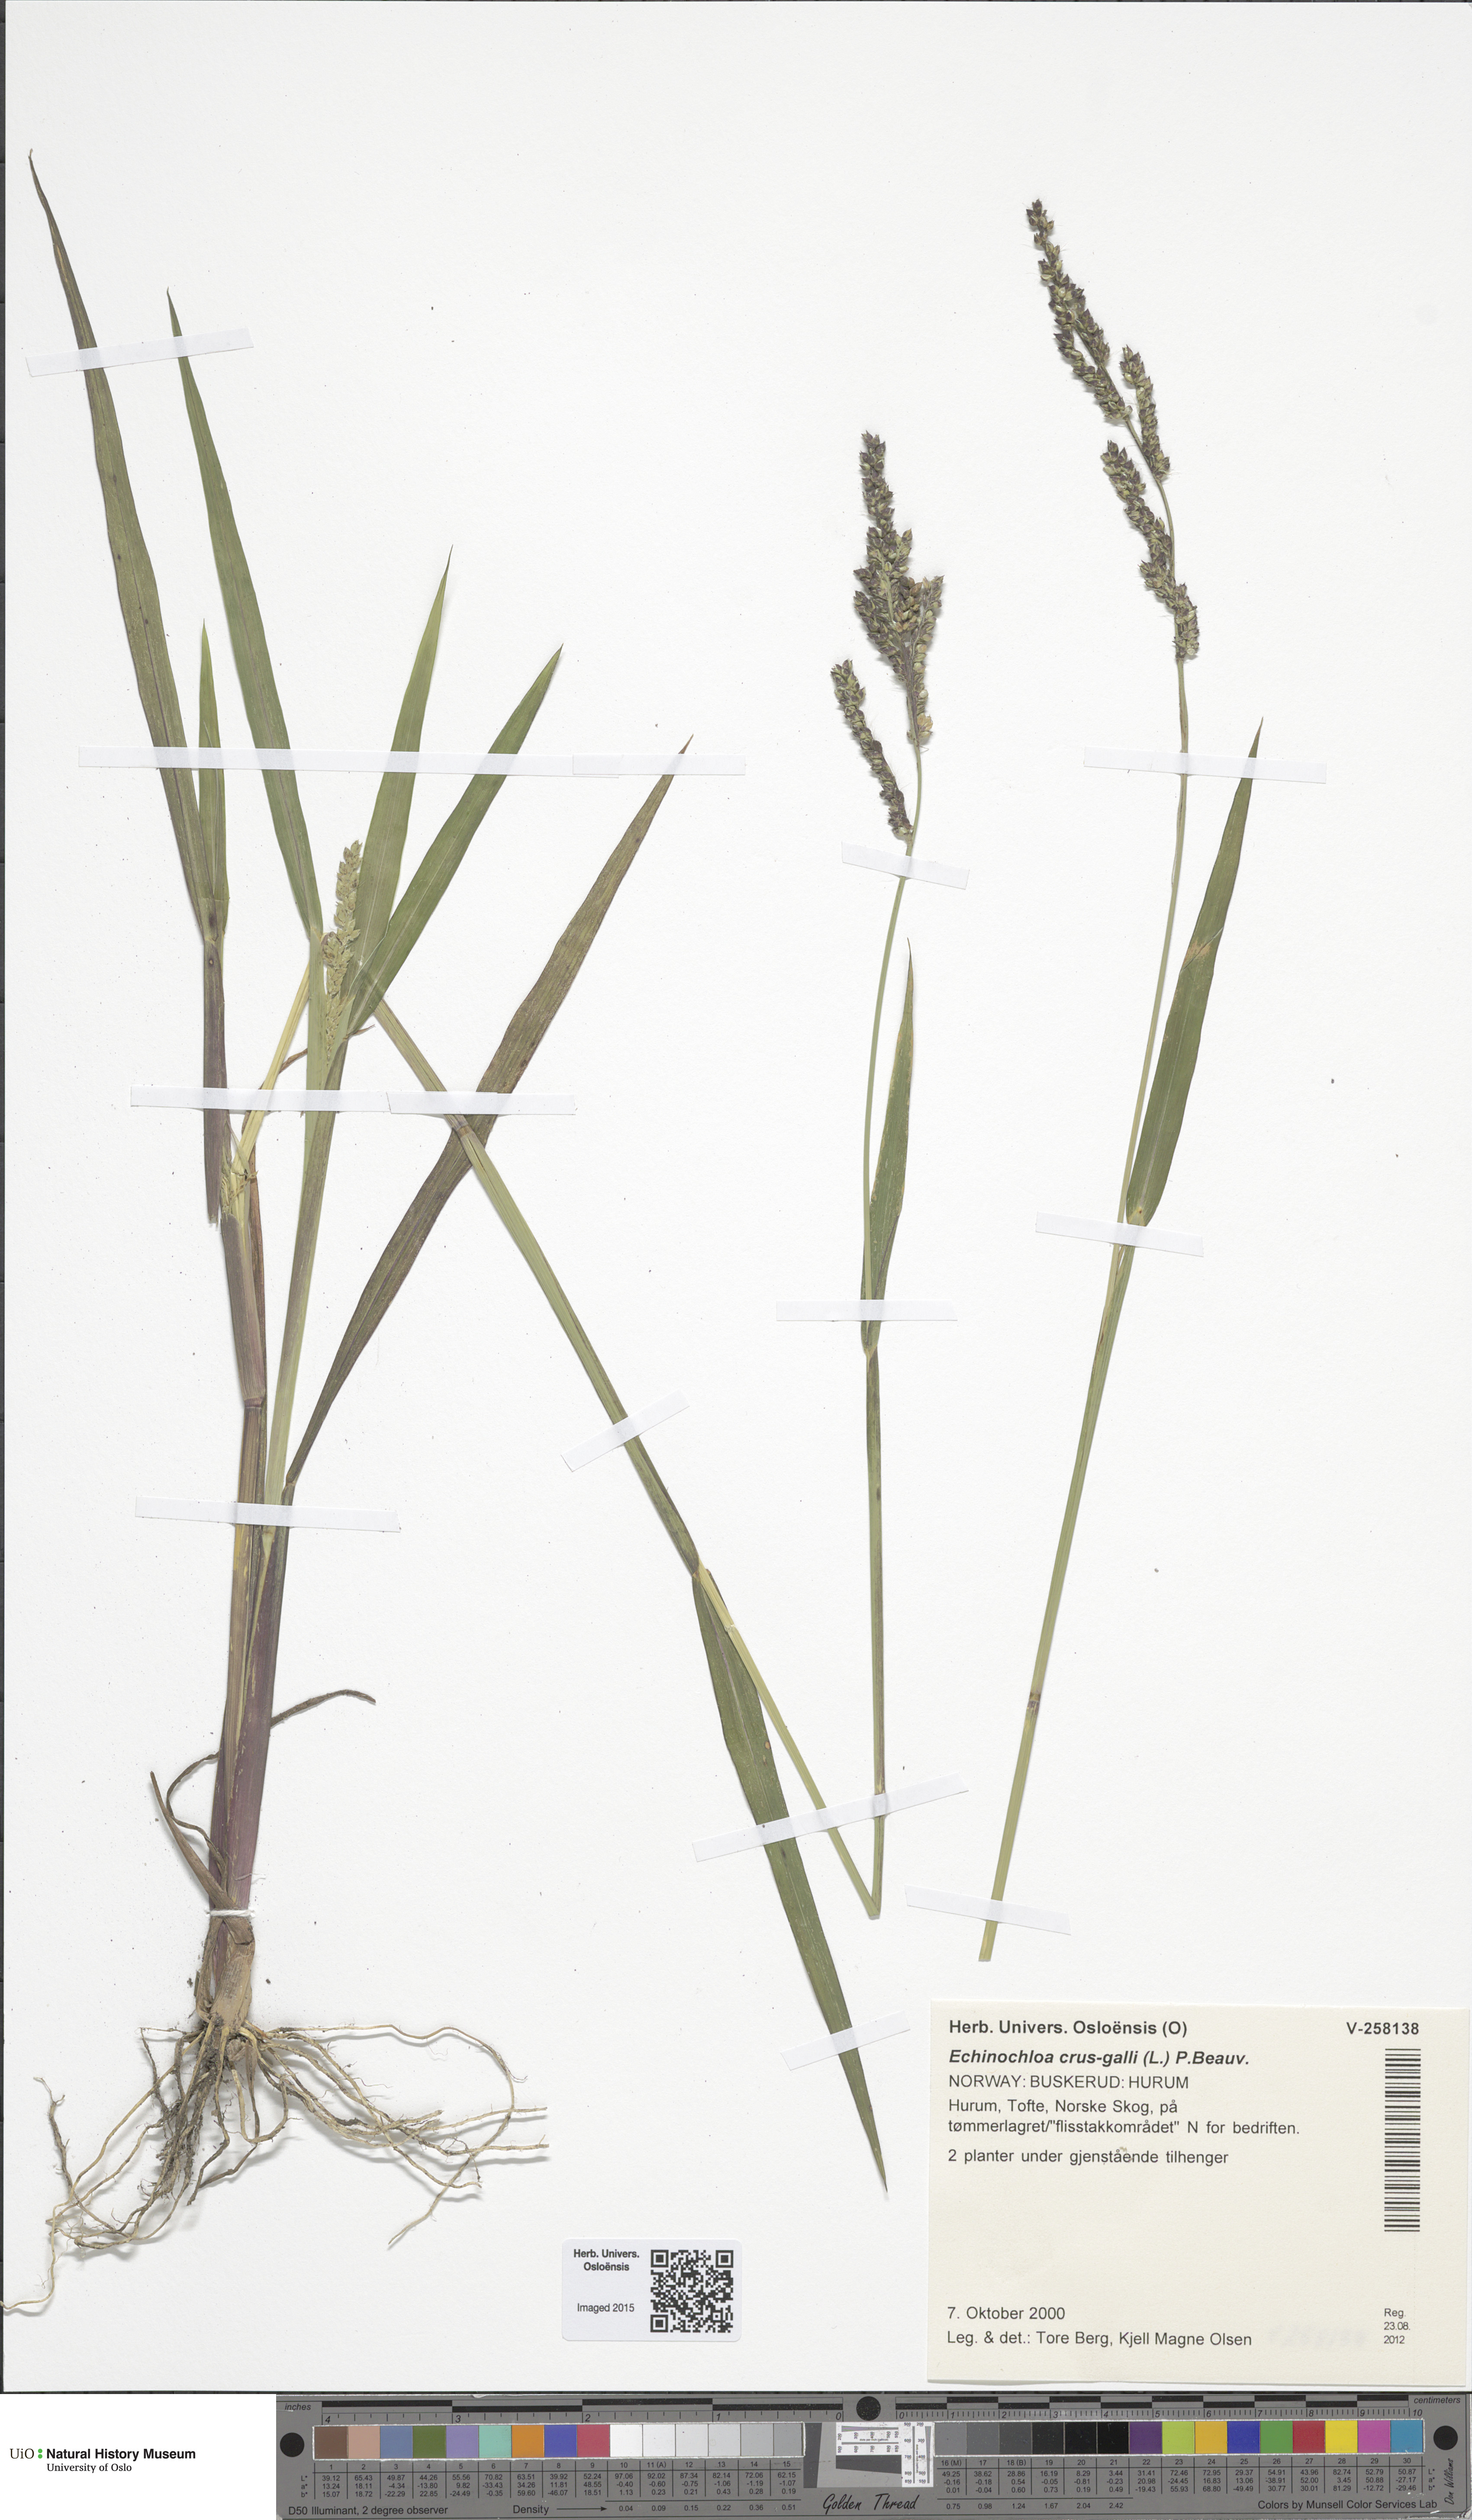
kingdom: Plantae
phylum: Tracheophyta
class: Liliopsida
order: Poales
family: Poaceae
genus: Echinochloa
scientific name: Echinochloa crus-galli
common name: Cockspur
